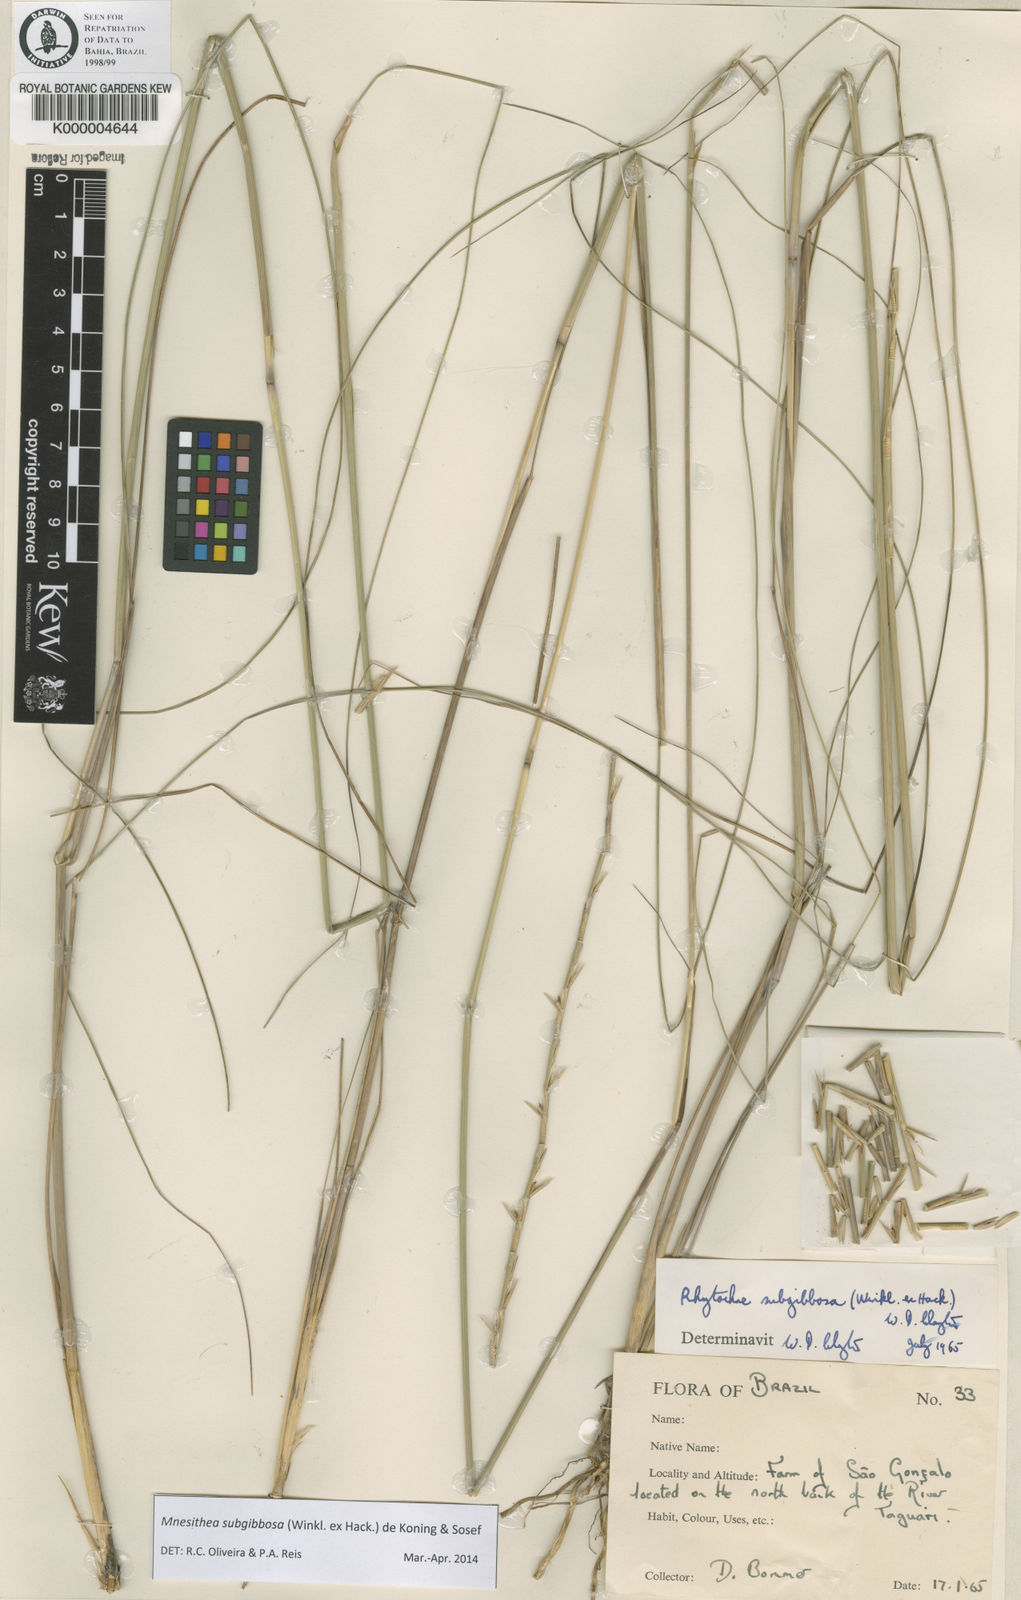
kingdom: Plantae
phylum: Tracheophyta
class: Liliopsida
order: Poales
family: Poaceae
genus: Rhytachne
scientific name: Rhytachne subgibbosa
